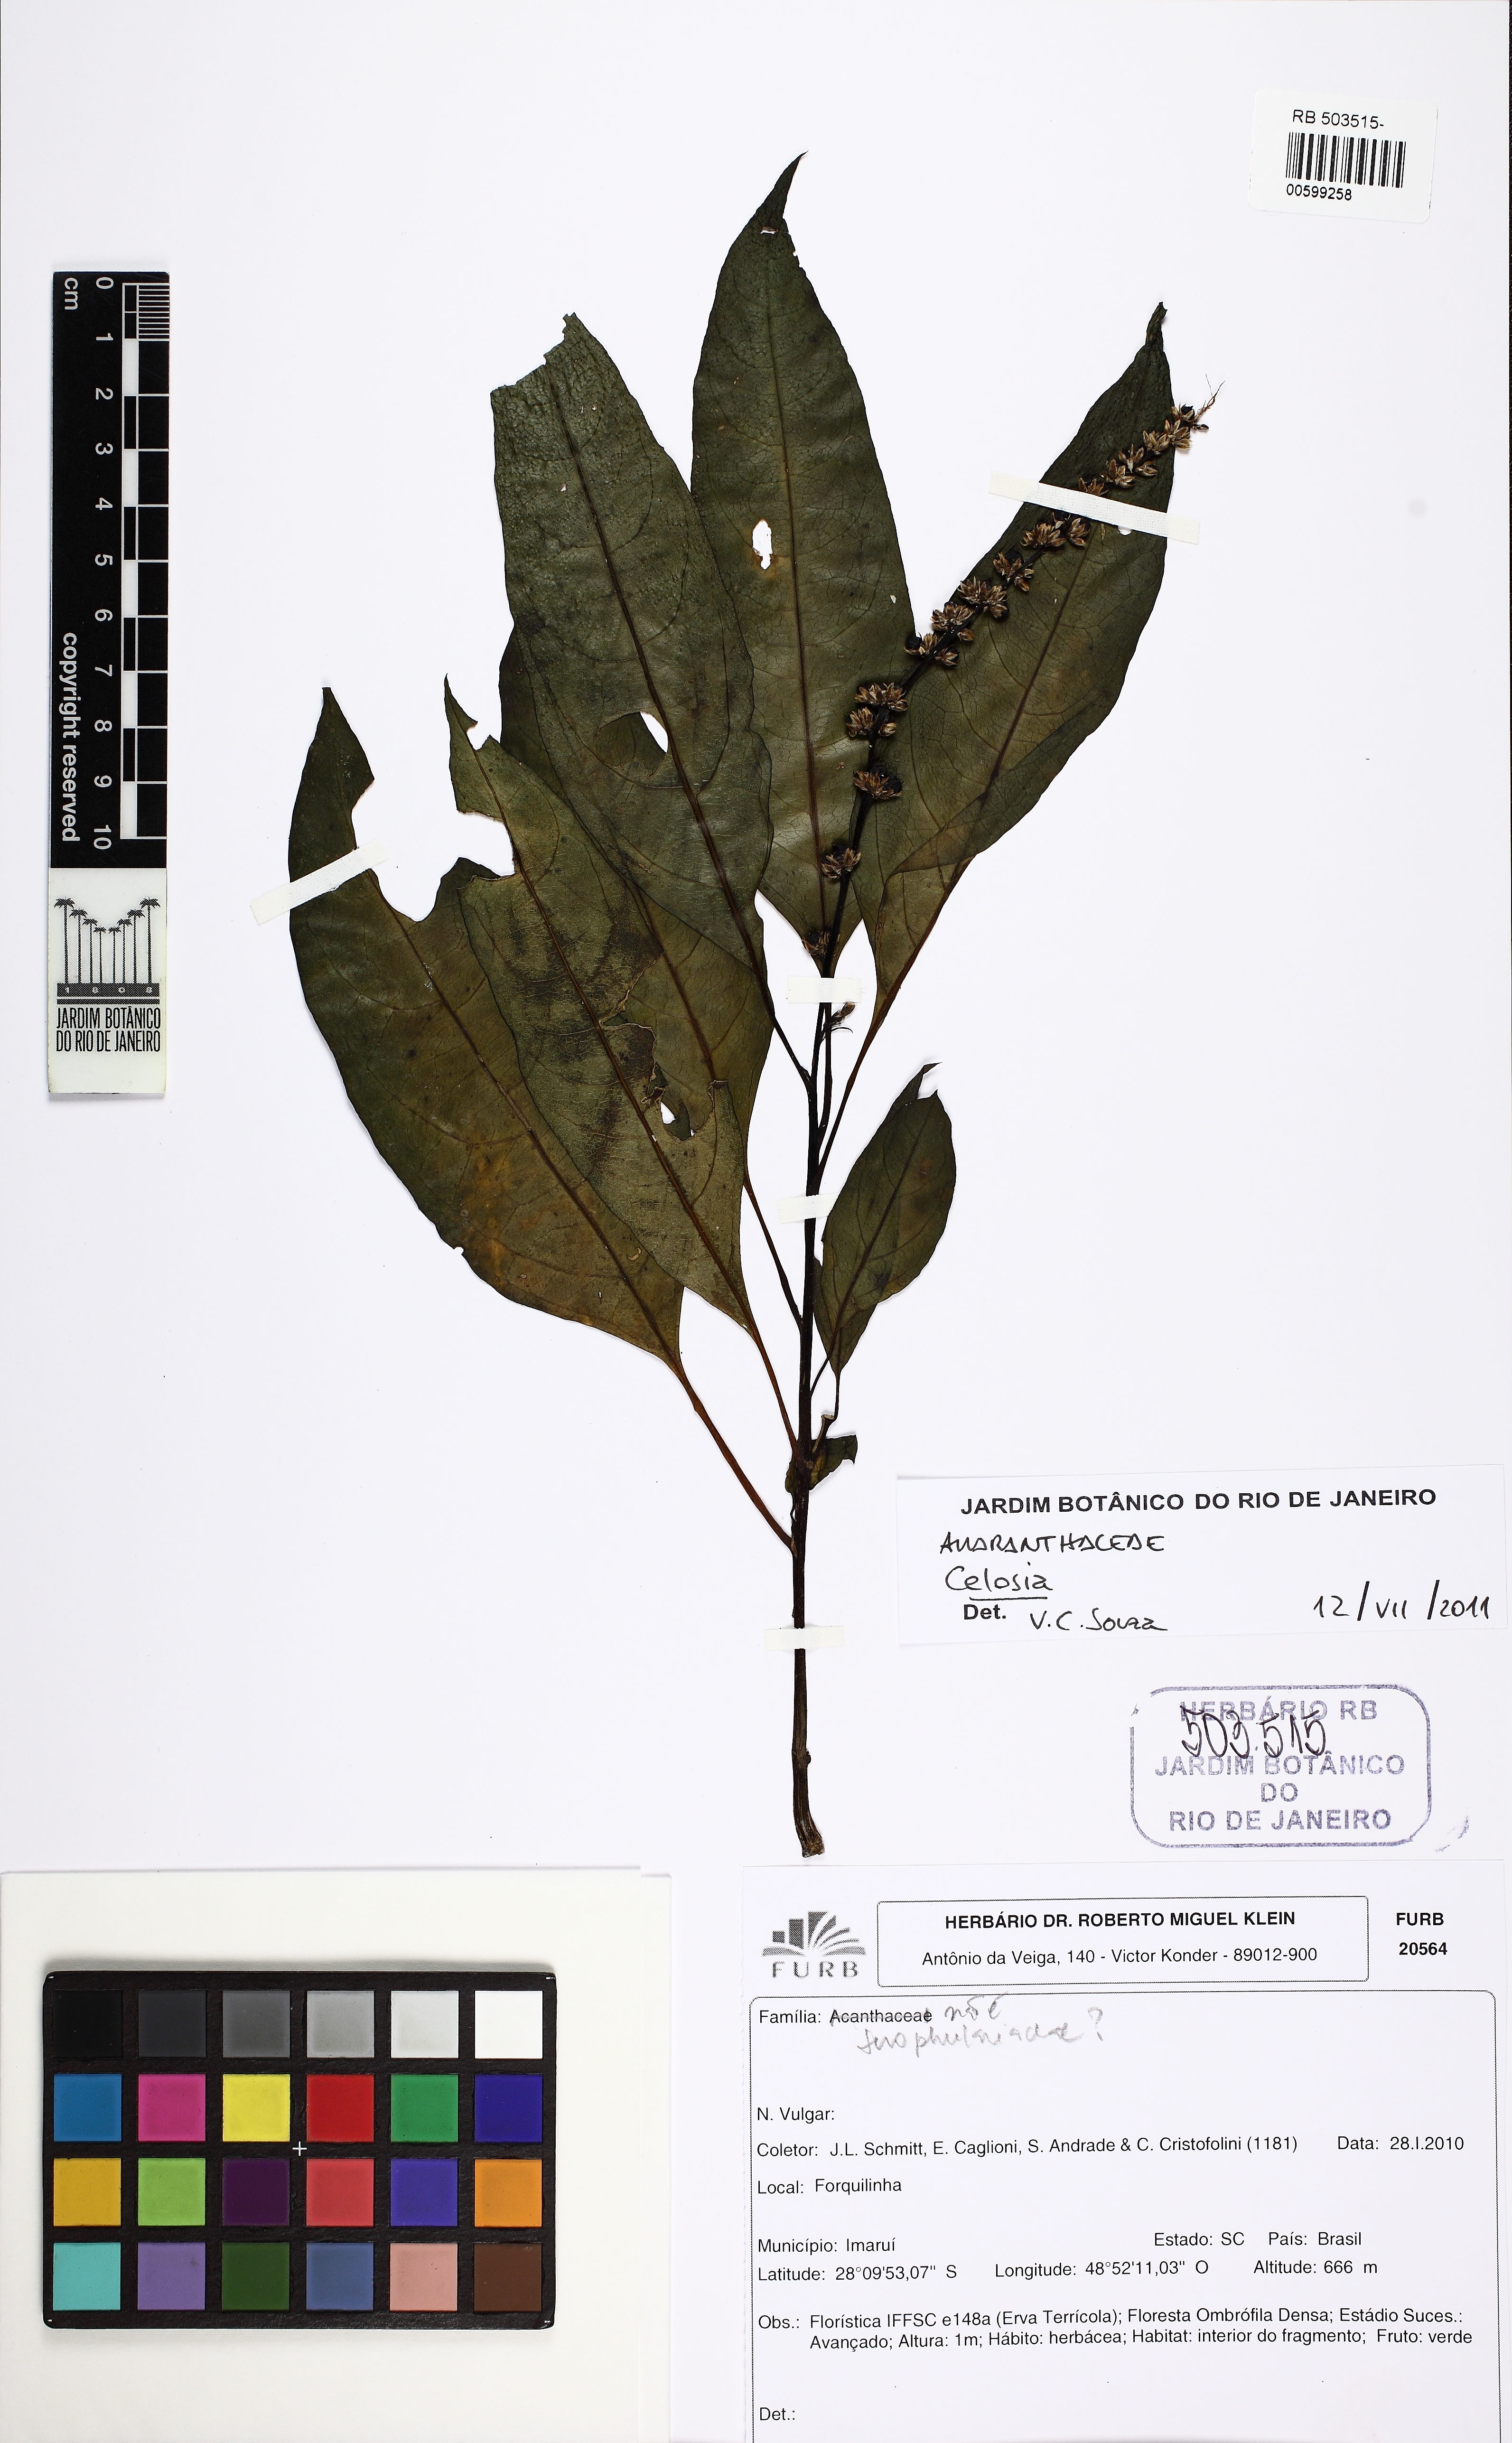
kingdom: Plantae
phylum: Tracheophyta
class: Magnoliopsida
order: Caryophyllales
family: Amaranthaceae
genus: Celosia
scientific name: Celosia
